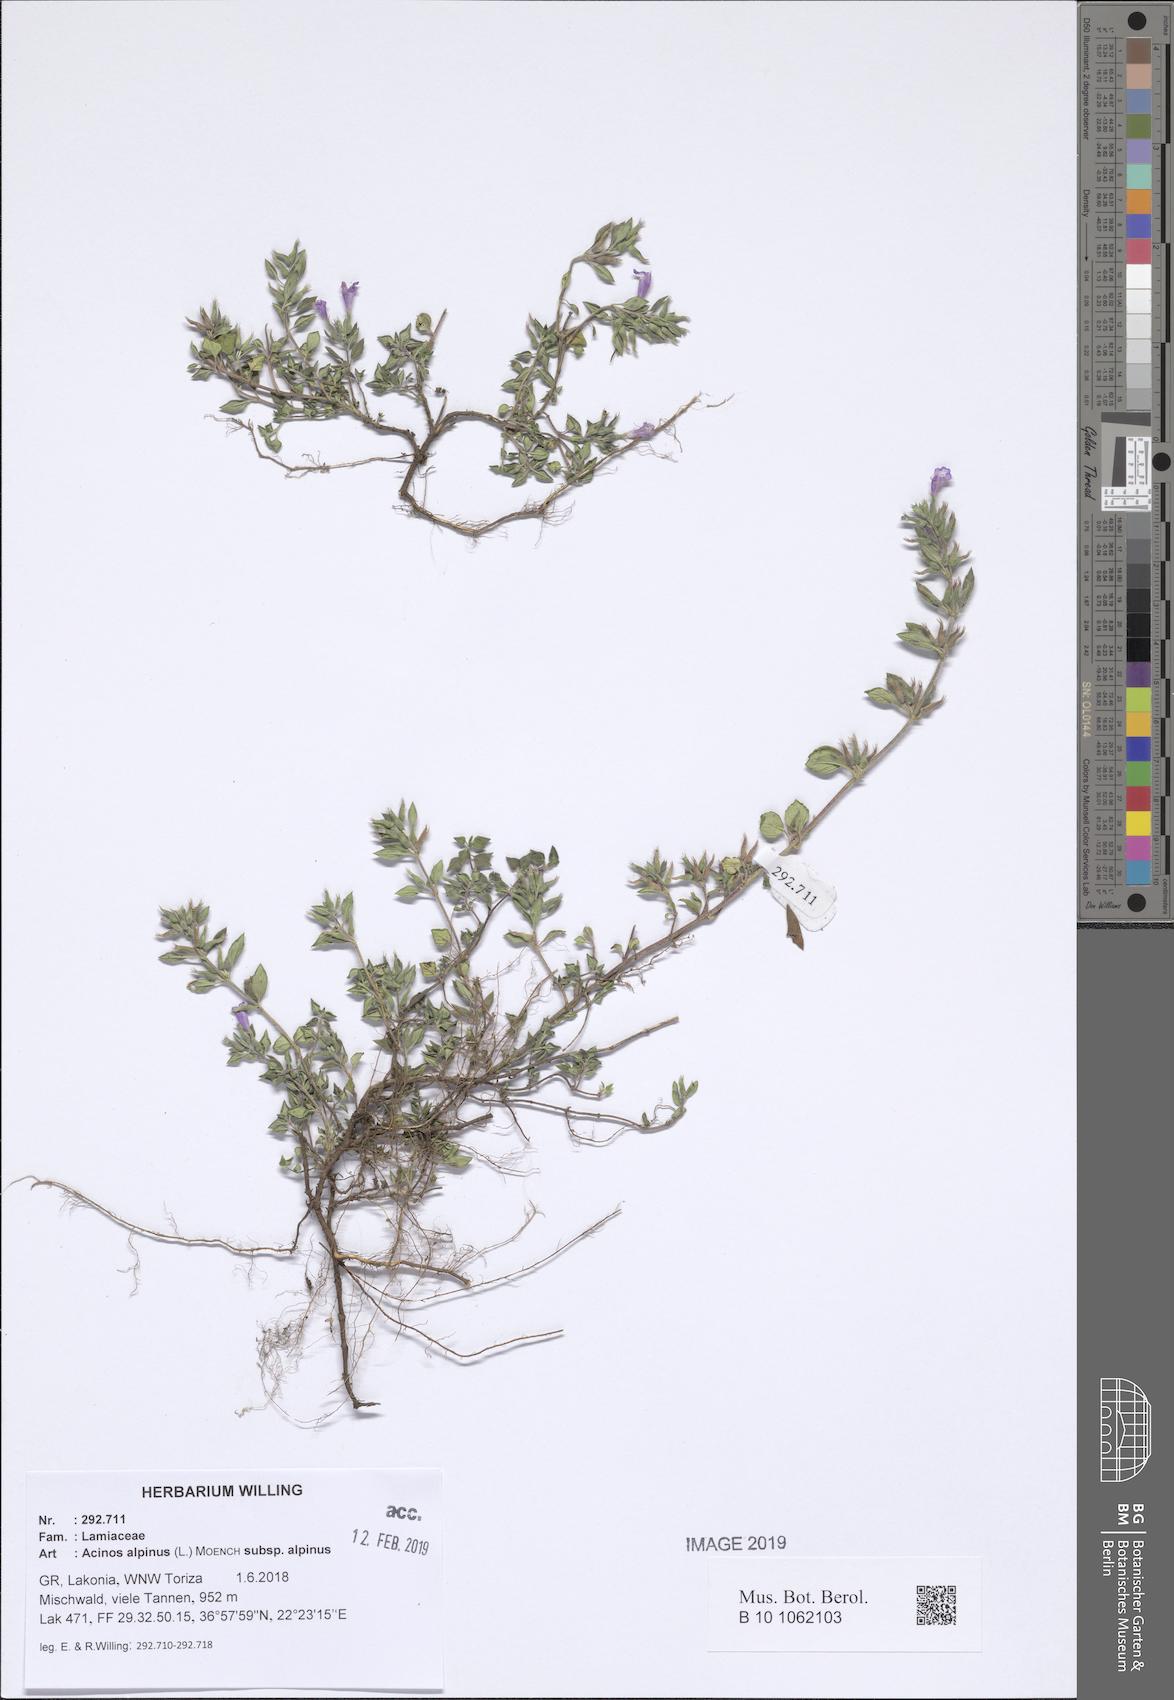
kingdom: Plantae
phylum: Tracheophyta
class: Magnoliopsida
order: Lamiales
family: Lamiaceae
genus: Clinopodium
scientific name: Clinopodium alpinum
